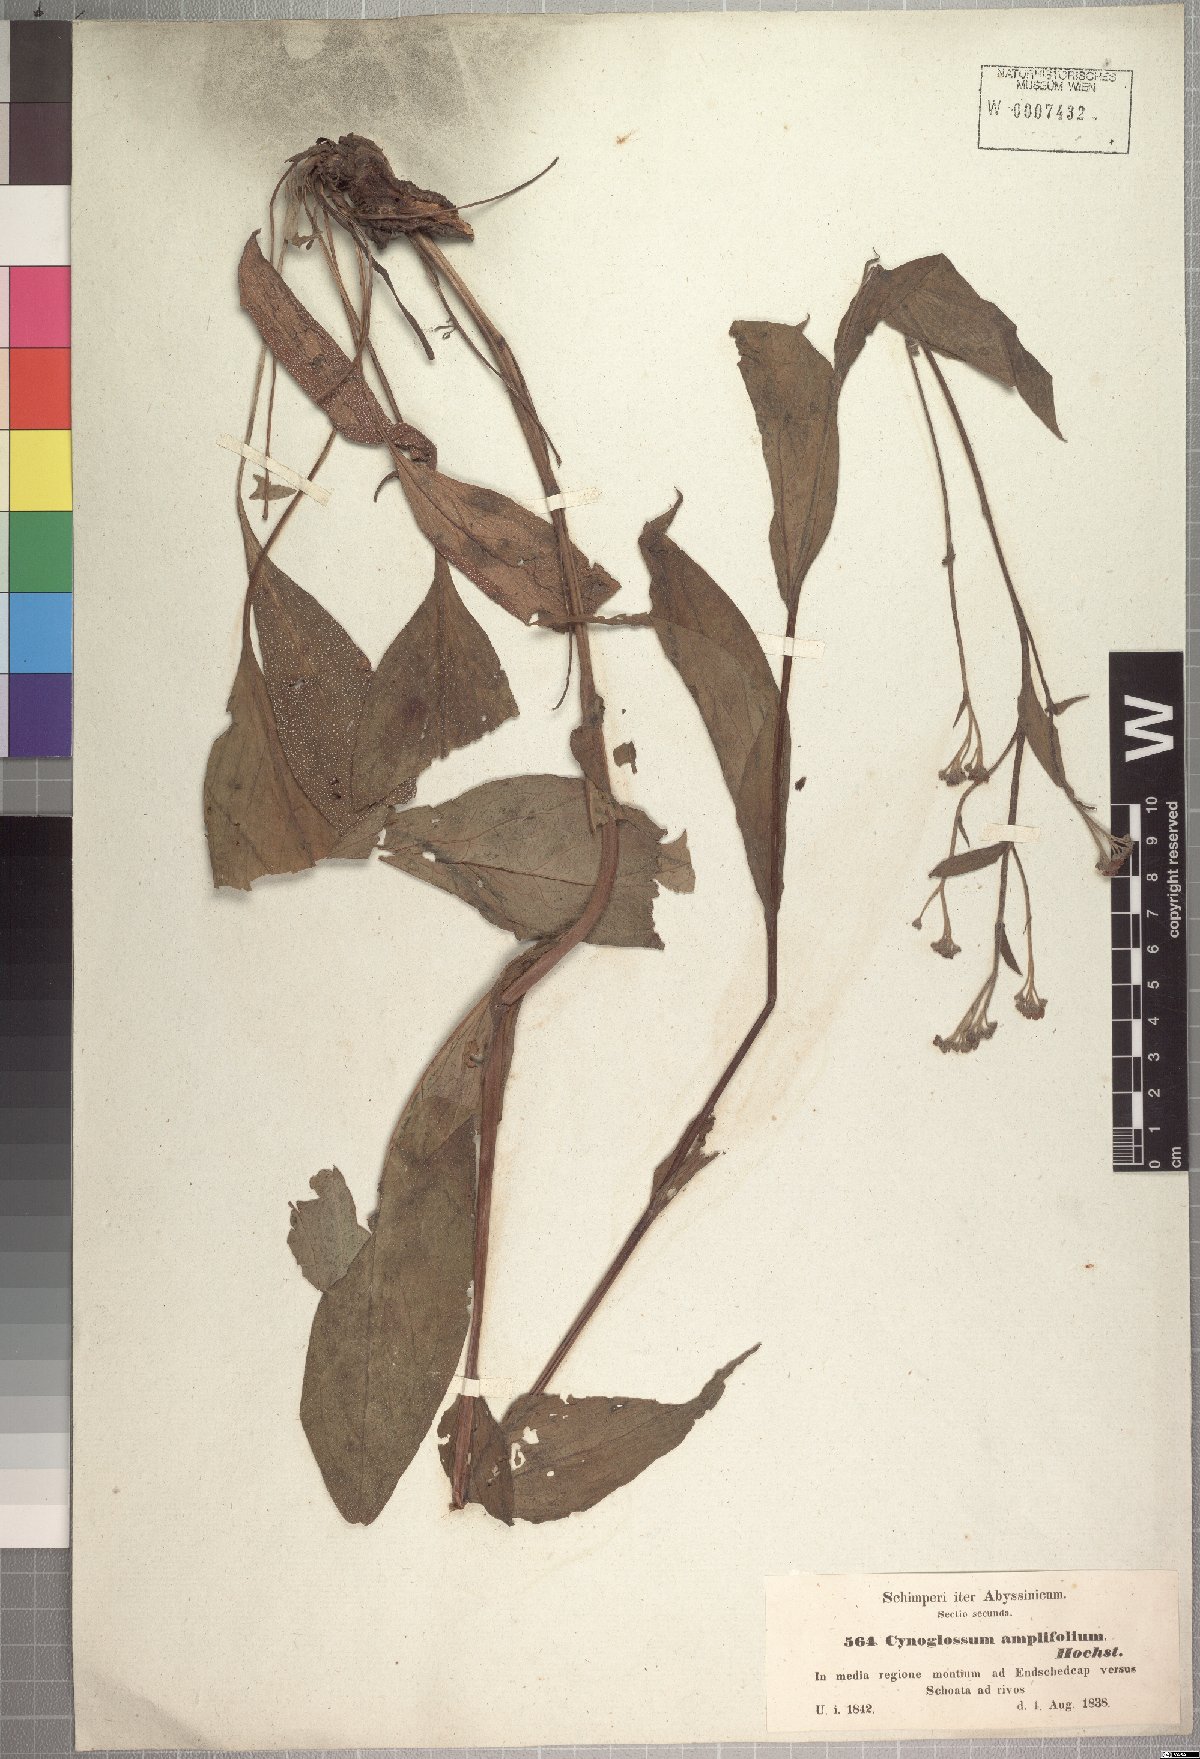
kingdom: Plantae
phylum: Tracheophyta
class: Magnoliopsida
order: Boraginales
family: Boraginaceae
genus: Cynoglossum
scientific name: Cynoglossum amplifolium
